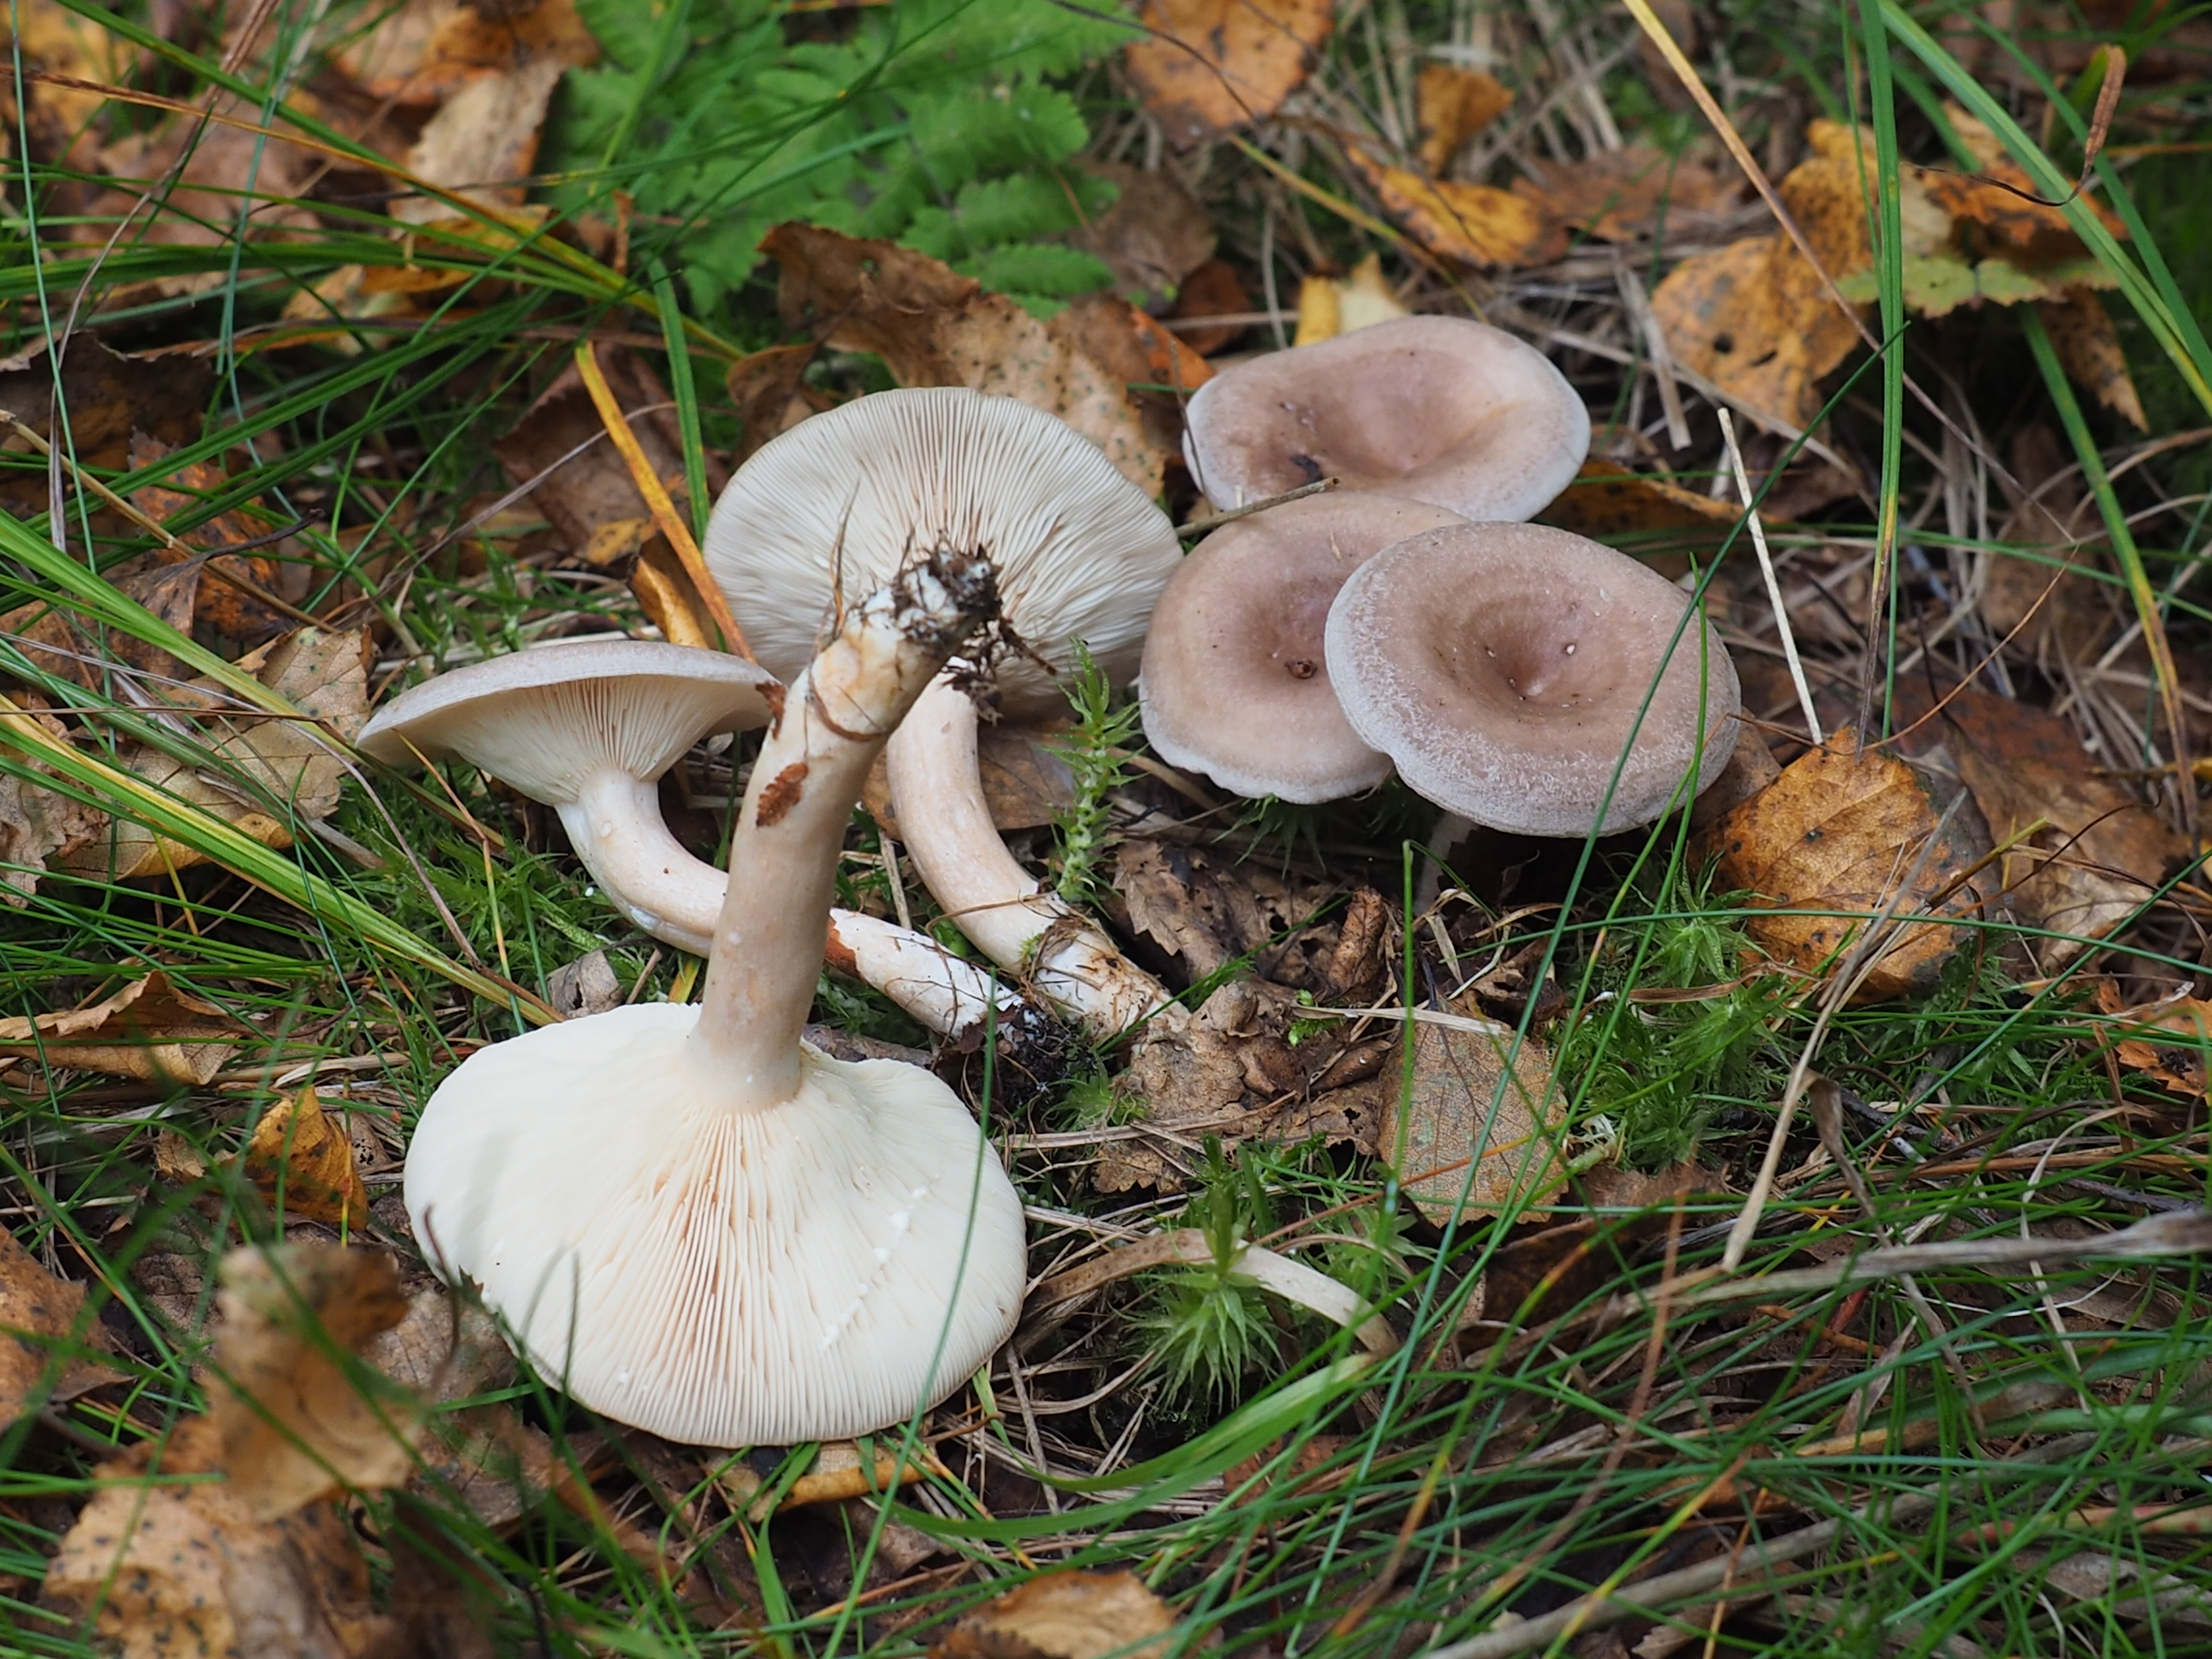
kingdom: Fungi
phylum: Basidiomycota
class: Agaricomycetes
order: Russulales
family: Russulaceae
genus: Lactarius
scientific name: Lactarius vietus
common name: Grey milk-cap
